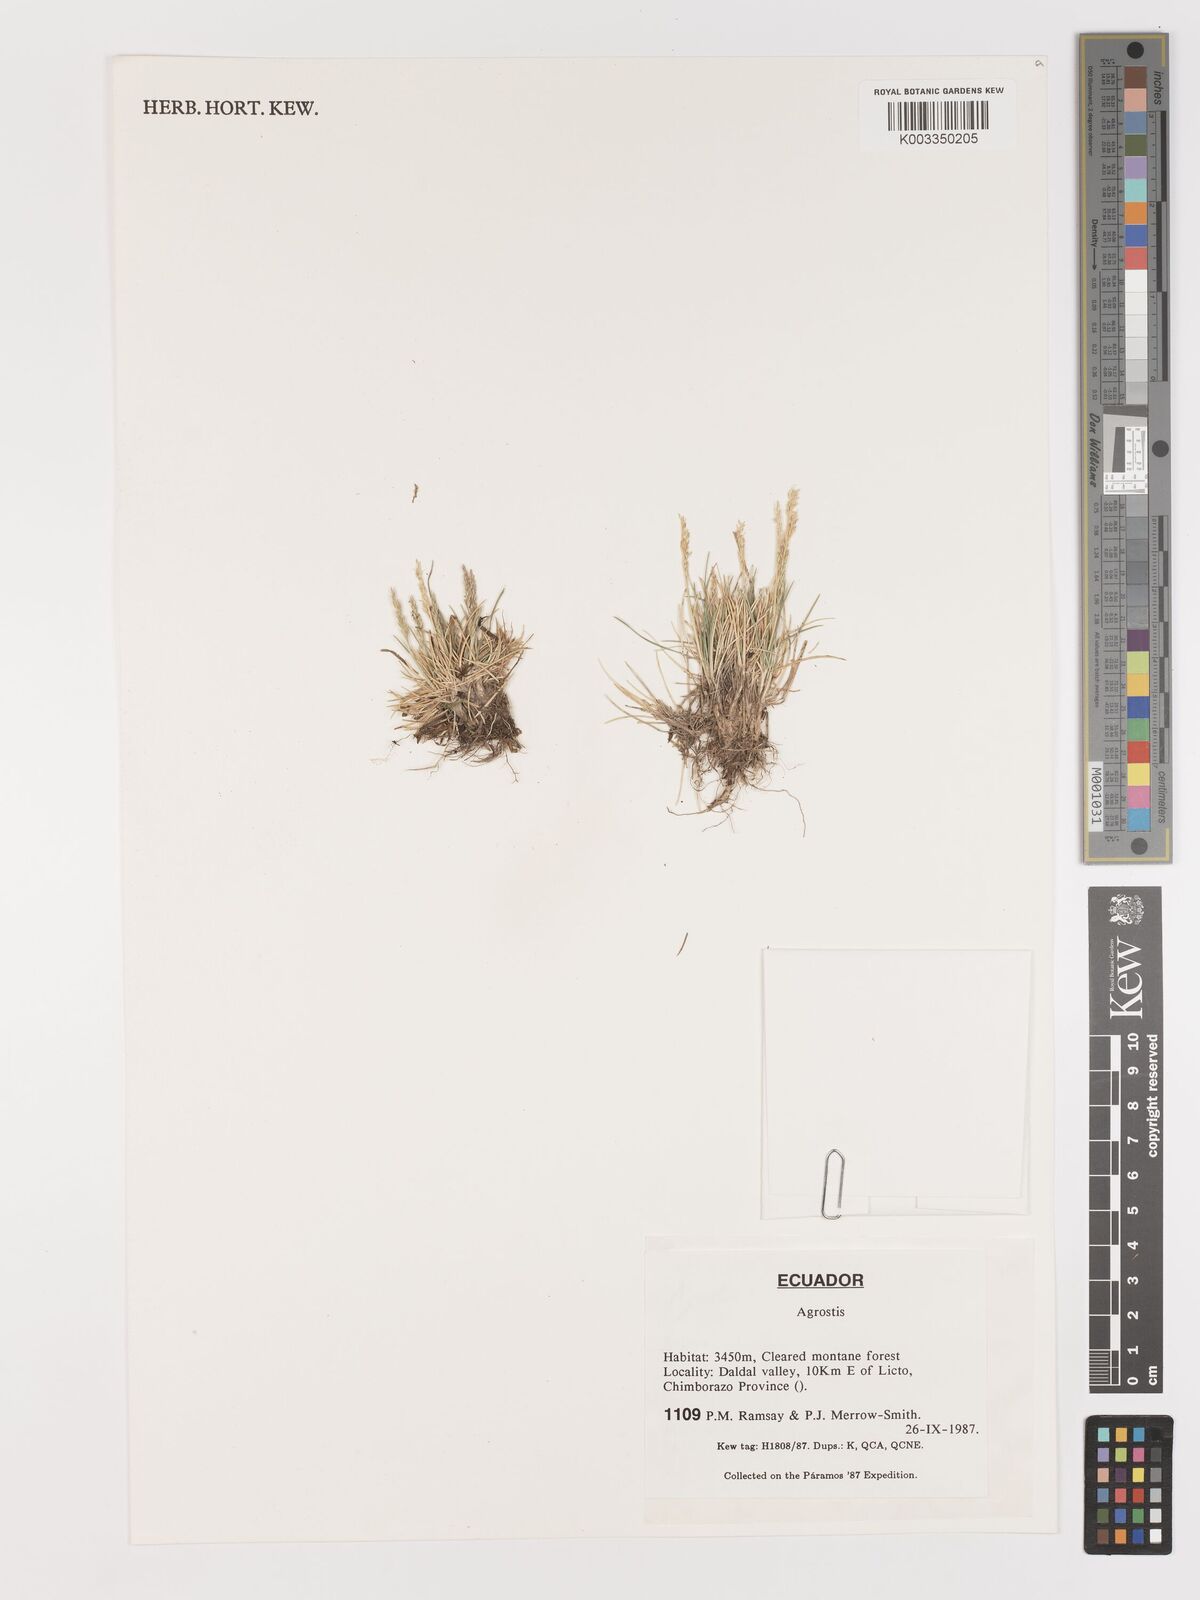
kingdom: Plantae
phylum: Tracheophyta
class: Liliopsida
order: Poales
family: Poaceae
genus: Agrostis
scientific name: Agrostis
